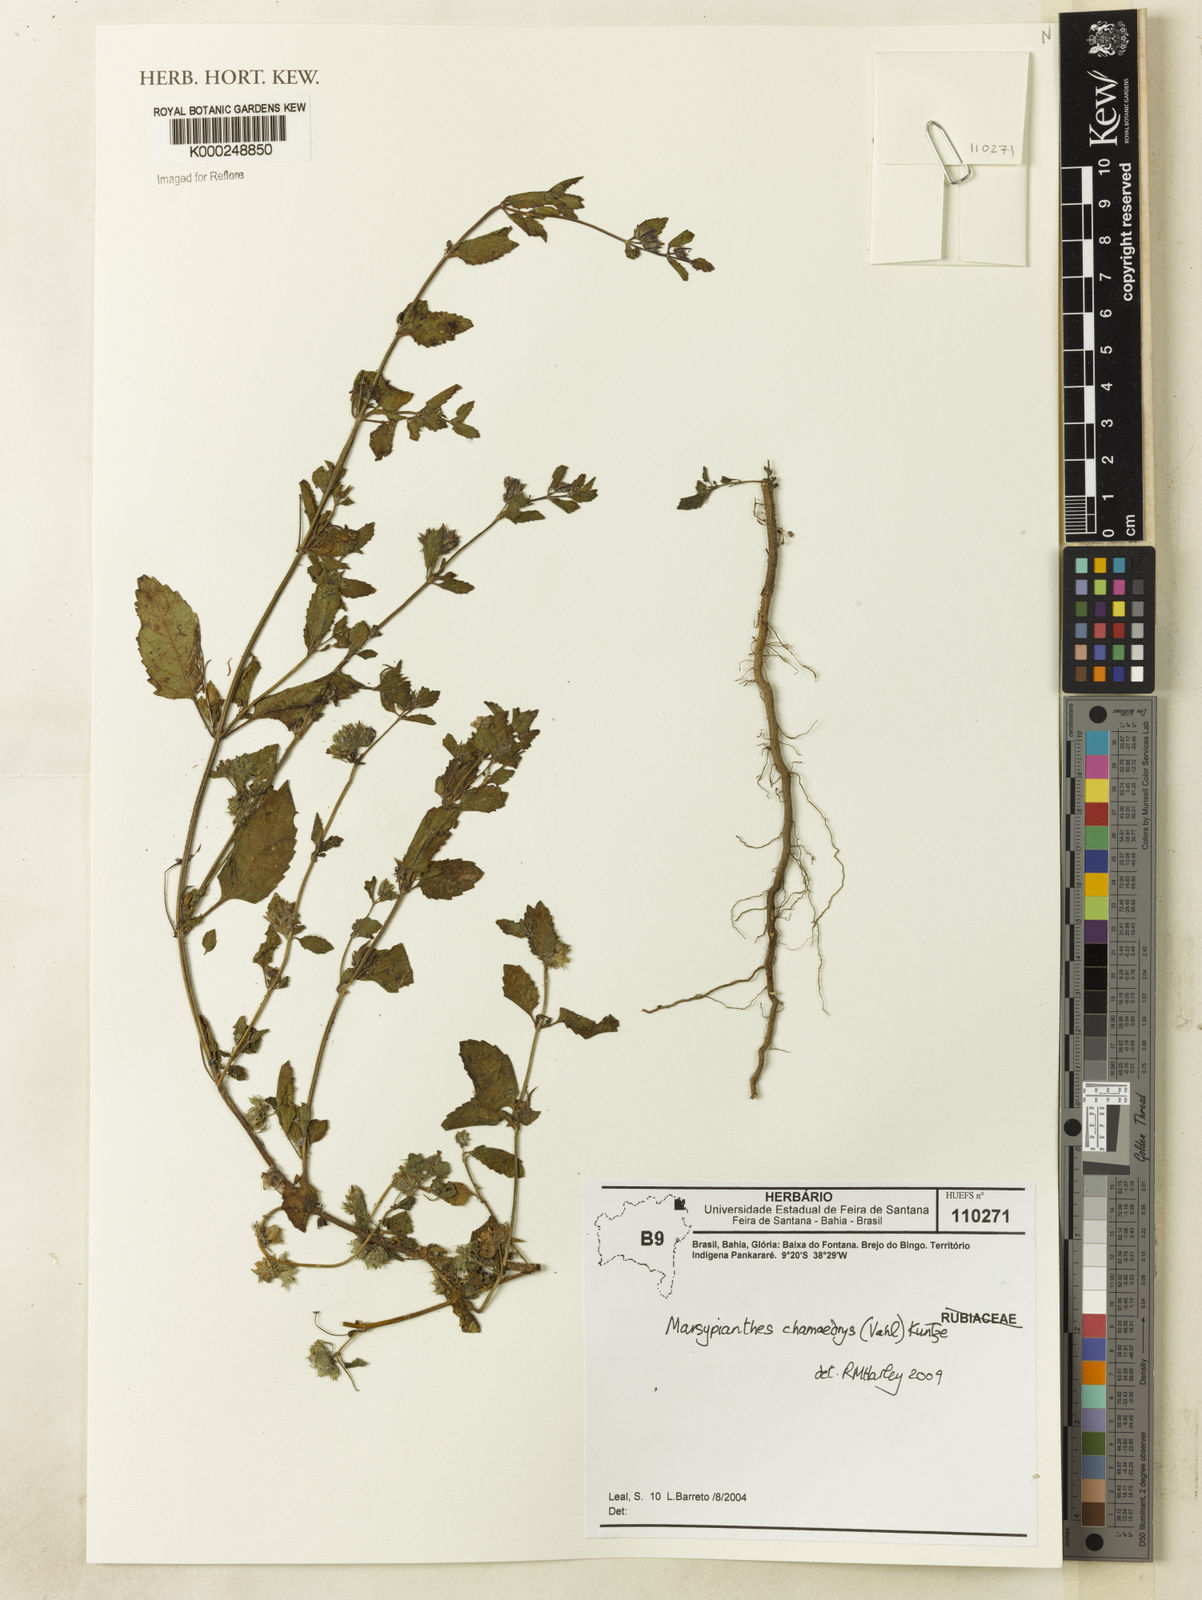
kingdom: Plantae
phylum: Tracheophyta
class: Magnoliopsida
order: Lamiales
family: Lamiaceae
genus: Marsypianthes
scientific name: Marsypianthes chamaedrys
